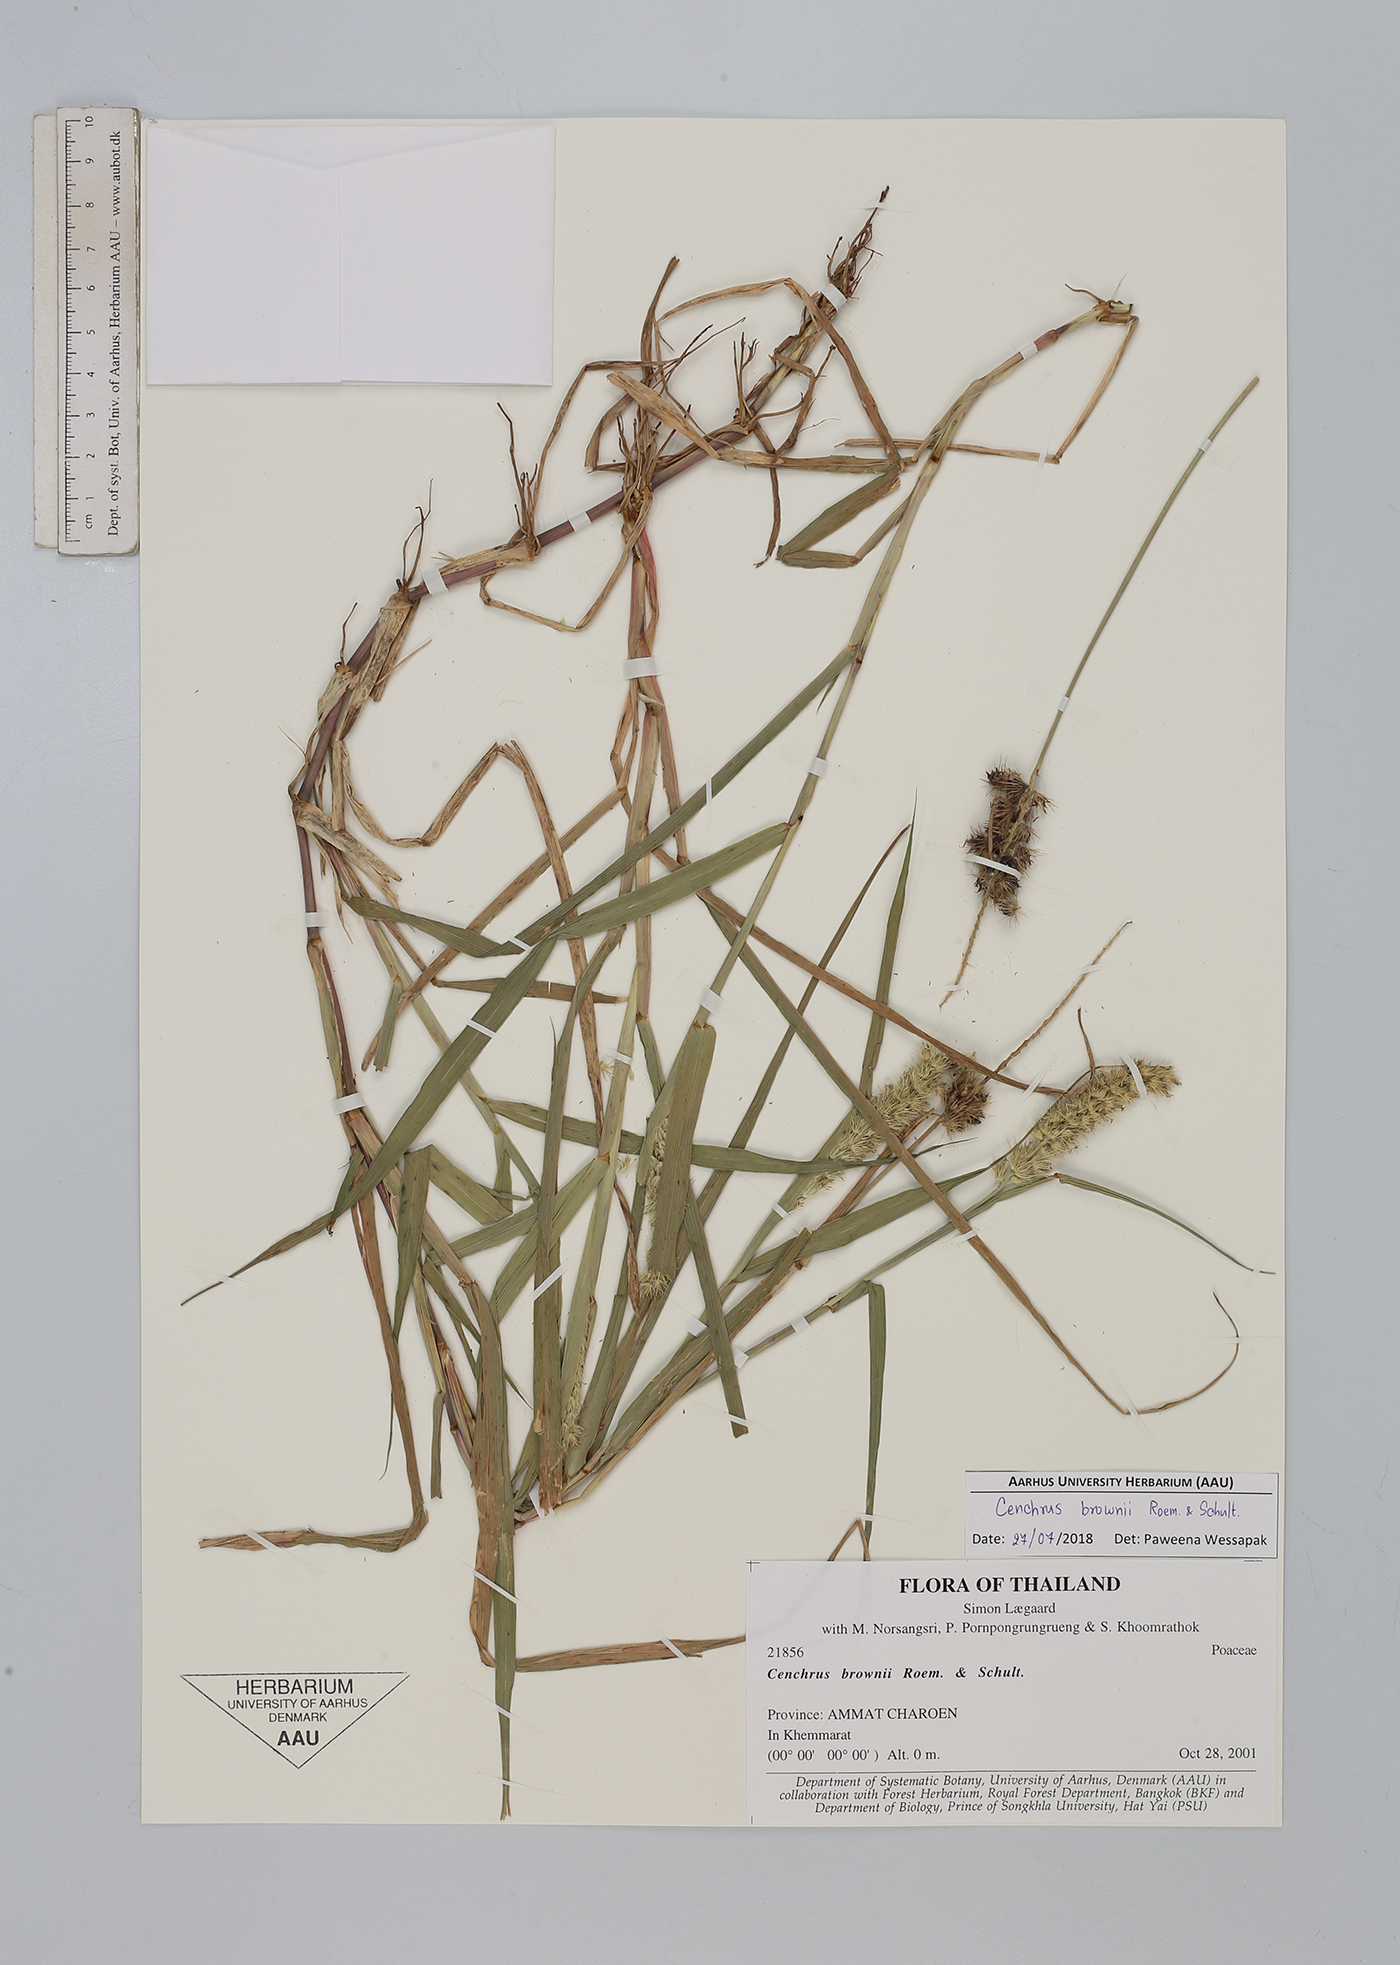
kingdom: Plantae
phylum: Tracheophyta
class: Liliopsida
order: Poales
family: Poaceae
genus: Cenchrus
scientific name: Cenchrus brownii
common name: Slim-bristle sandbur
